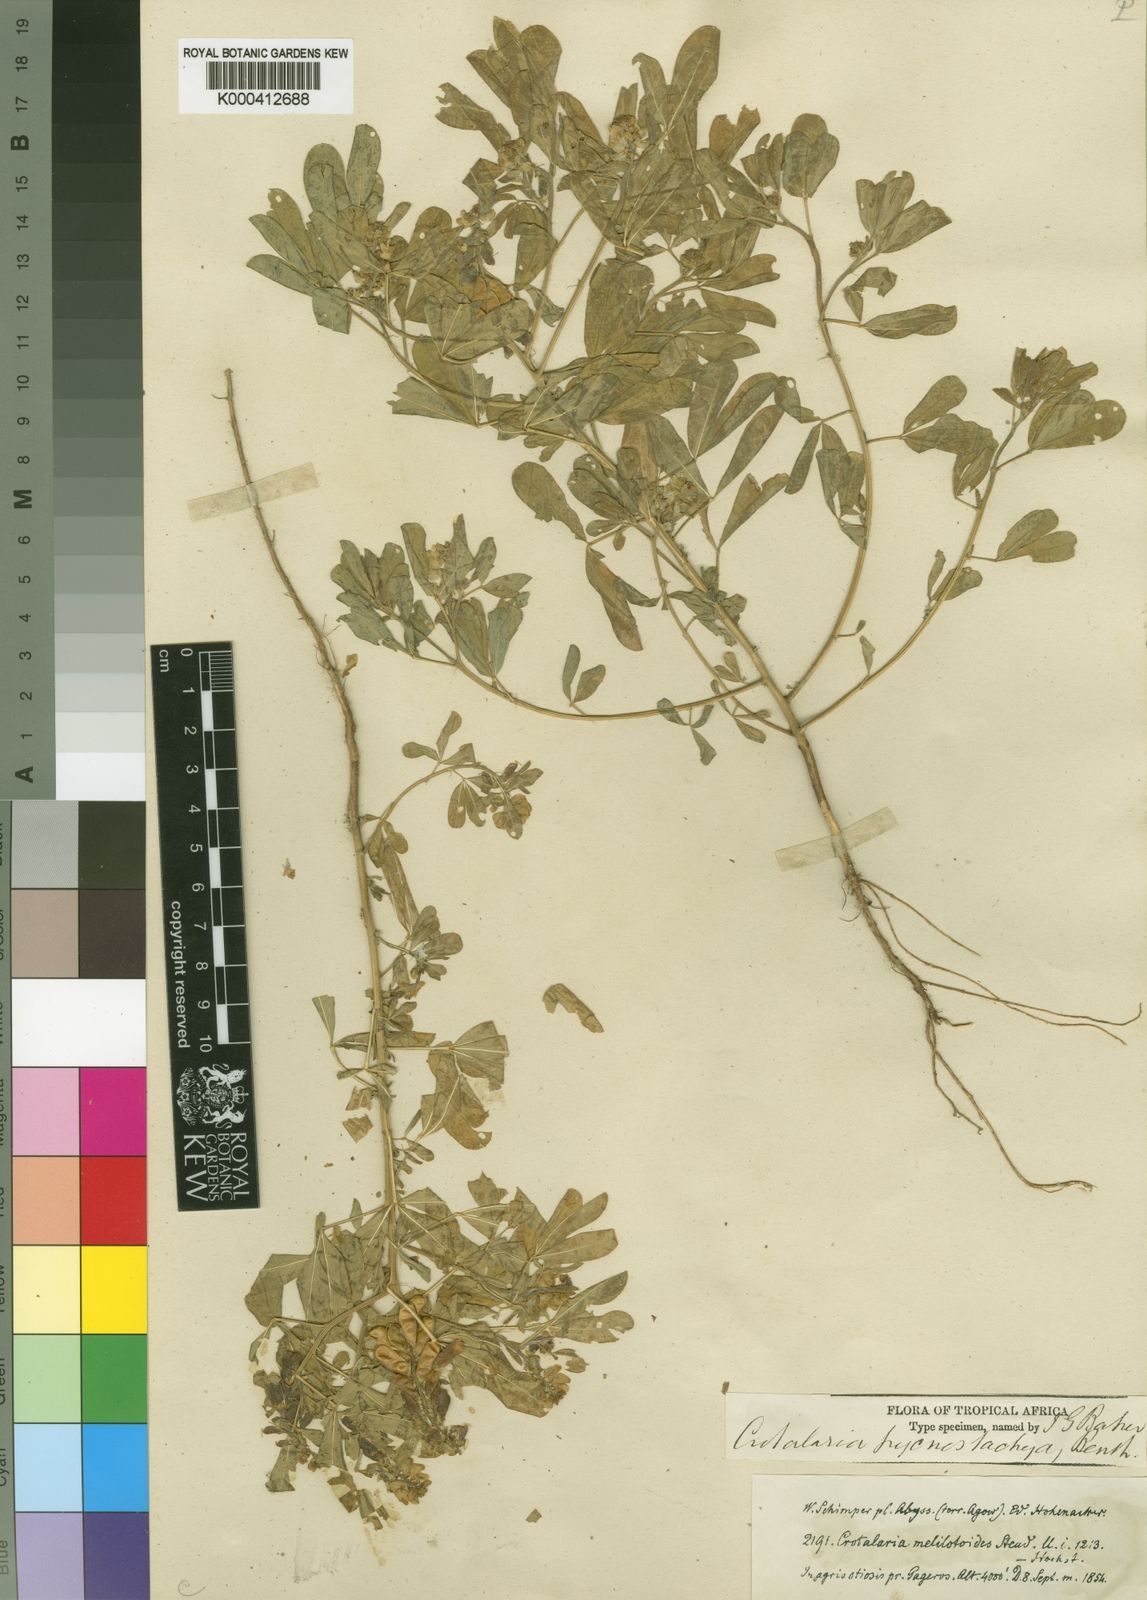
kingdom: Plantae
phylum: Tracheophyta
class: Magnoliopsida
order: Fabales
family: Fabaceae
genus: Crotalaria
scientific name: Crotalaria pycnostachya
